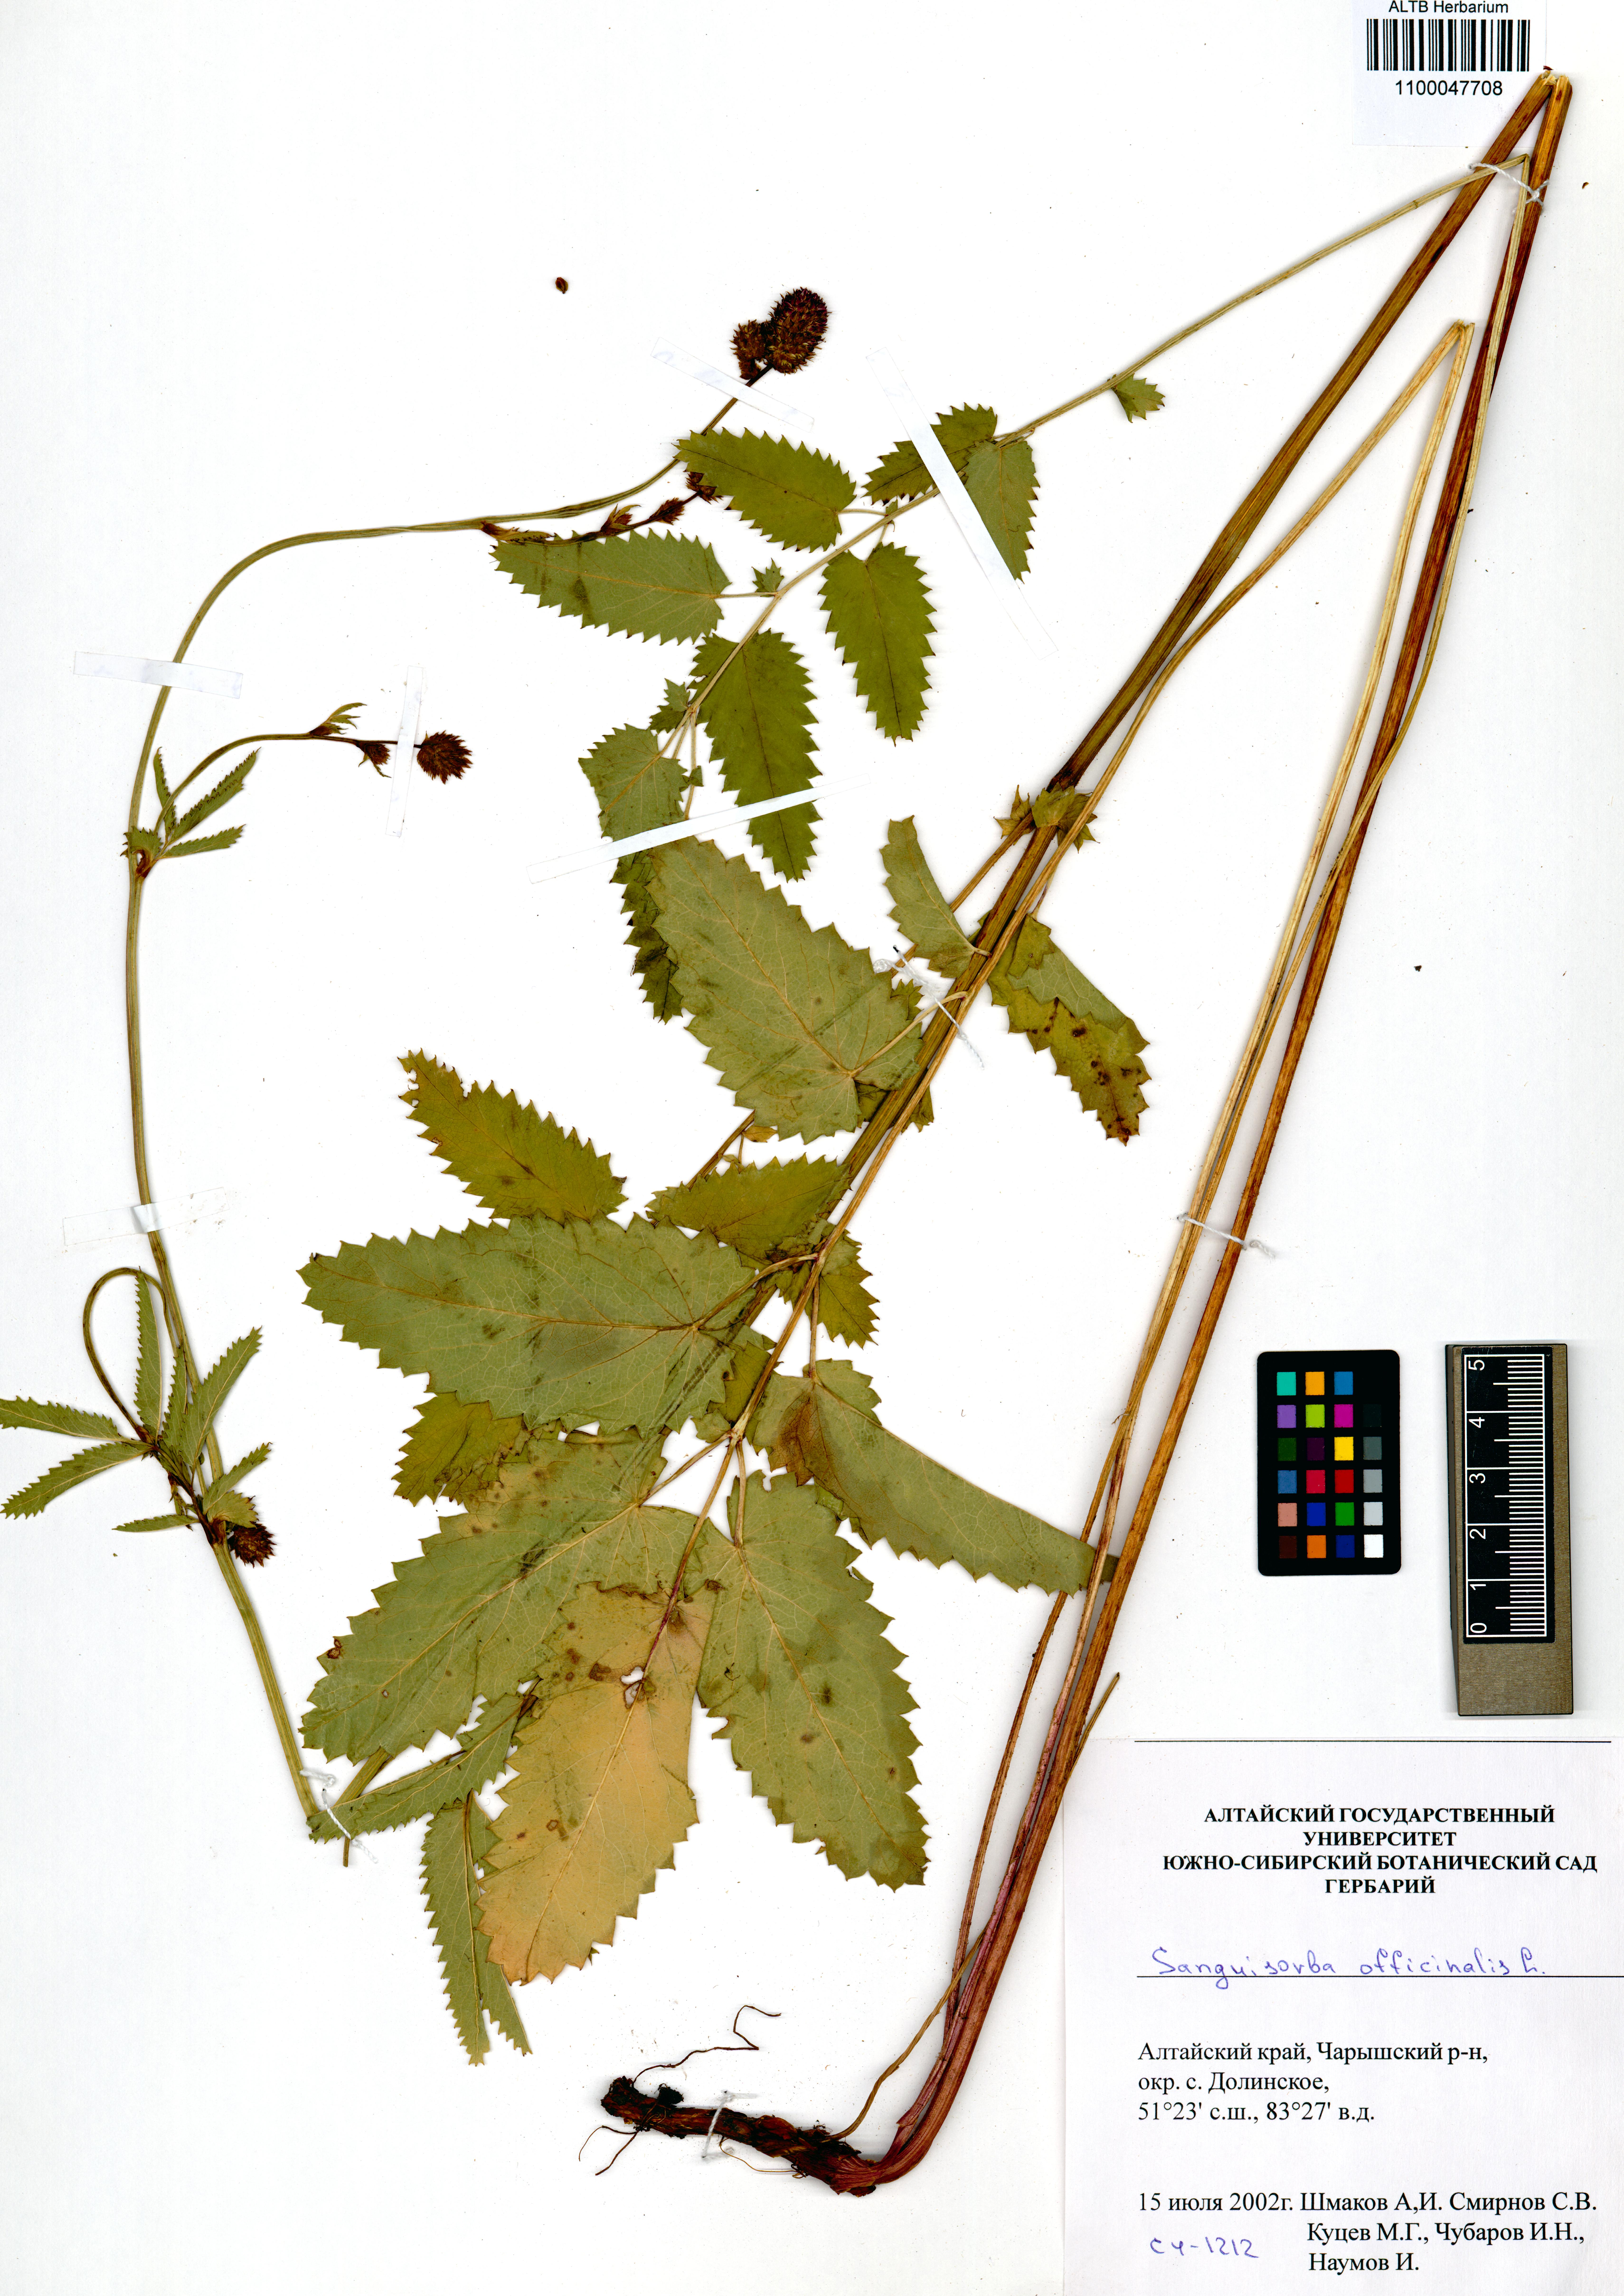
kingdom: Plantae
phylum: Tracheophyta
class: Magnoliopsida
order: Rosales
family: Rosaceae
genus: Sanguisorba
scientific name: Sanguisorba officinalis
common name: Great burnet
